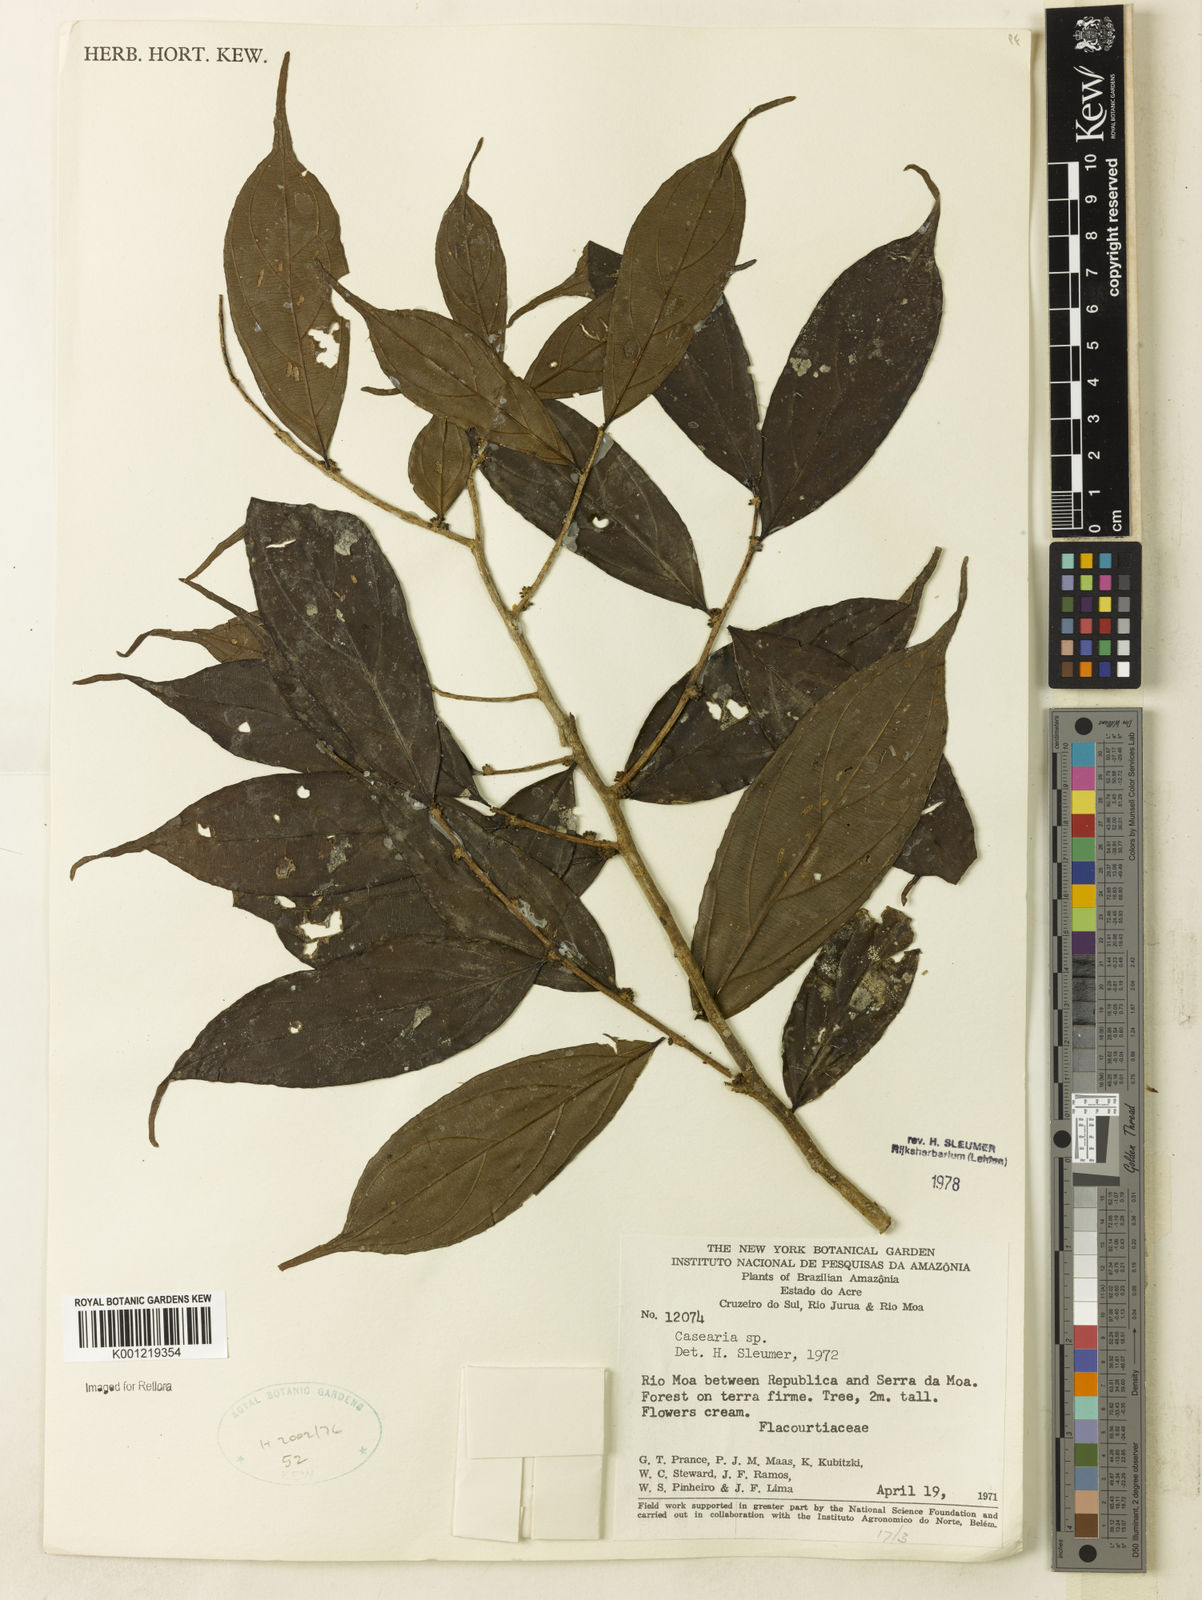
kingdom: Plantae
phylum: Tracheophyta
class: Magnoliopsida
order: Malpighiales
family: Salicaceae
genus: Casearia
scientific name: Casearia
